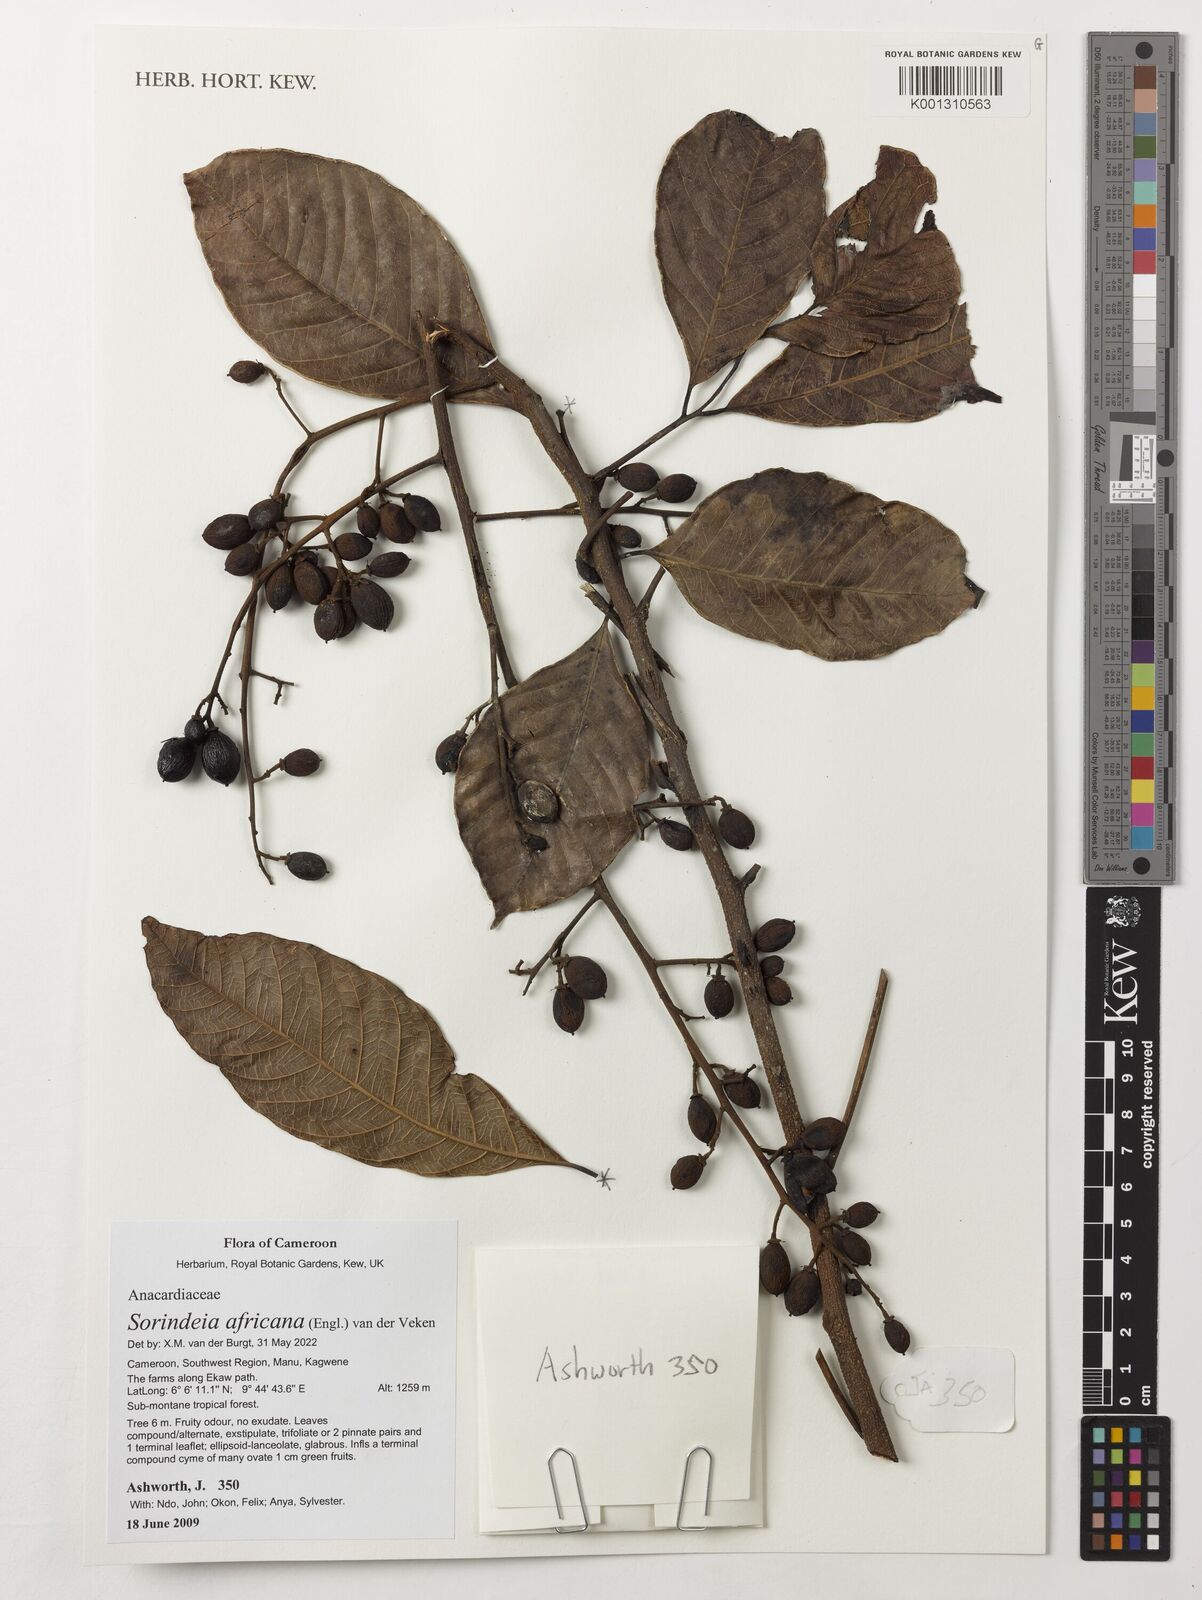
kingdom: Plantae
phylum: Tracheophyta
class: Magnoliopsida
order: Sapindales
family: Anacardiaceae
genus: Sorindeia
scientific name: Sorindeia africana
